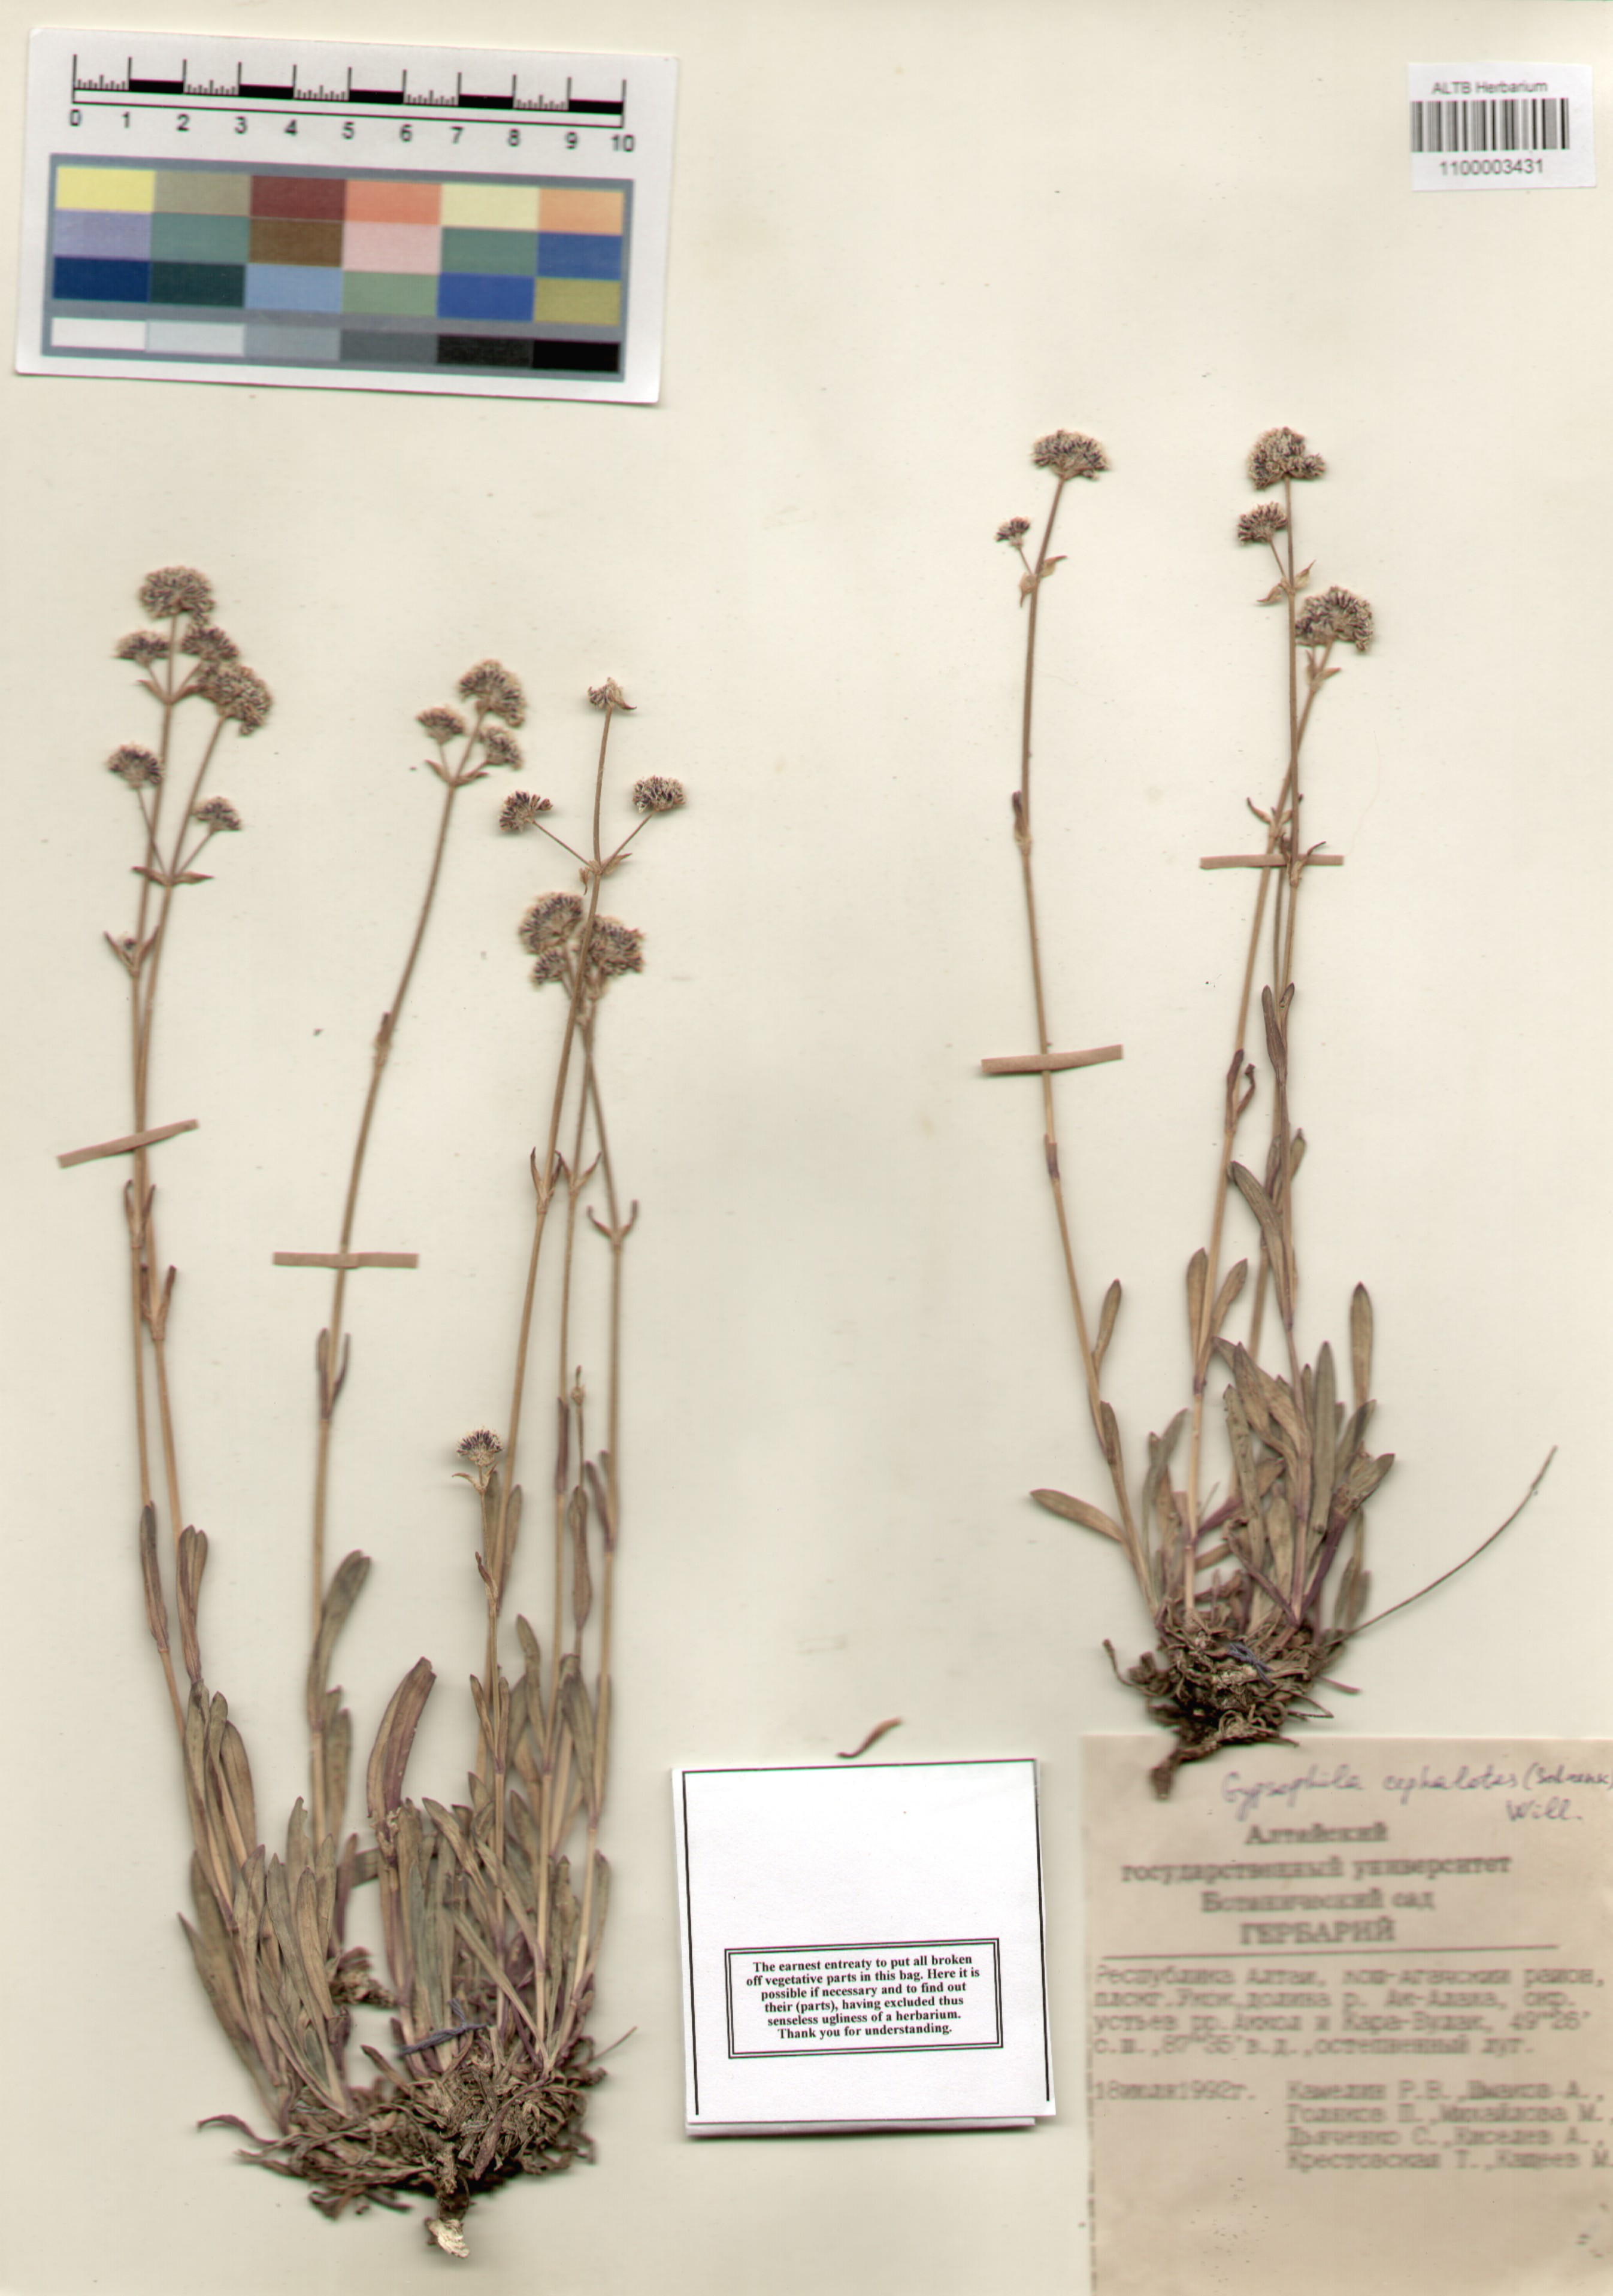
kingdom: Plantae
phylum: Tracheophyta
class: Magnoliopsida
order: Caryophyllales
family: Caryophyllaceae
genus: Gypsophila
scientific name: Gypsophila cephalotes
